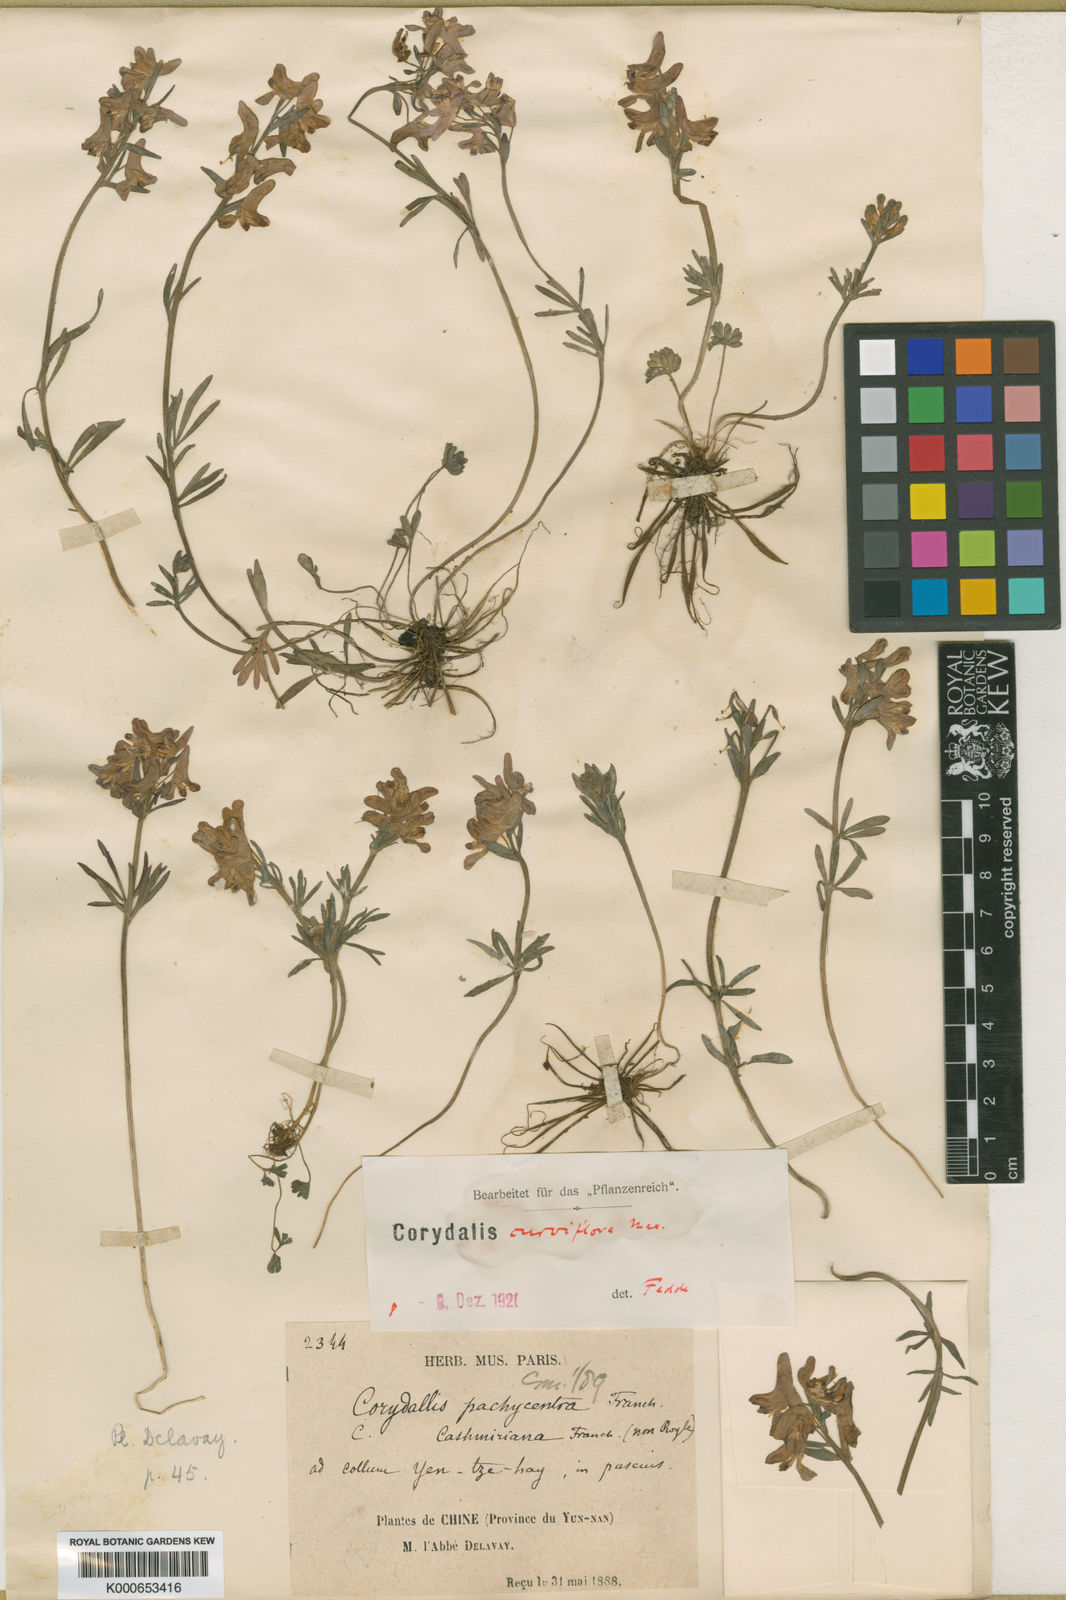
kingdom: Plantae
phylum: Tracheophyta
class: Magnoliopsida
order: Ranunculales
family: Papaveraceae
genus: Corydalis
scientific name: Corydalis pachycentra
